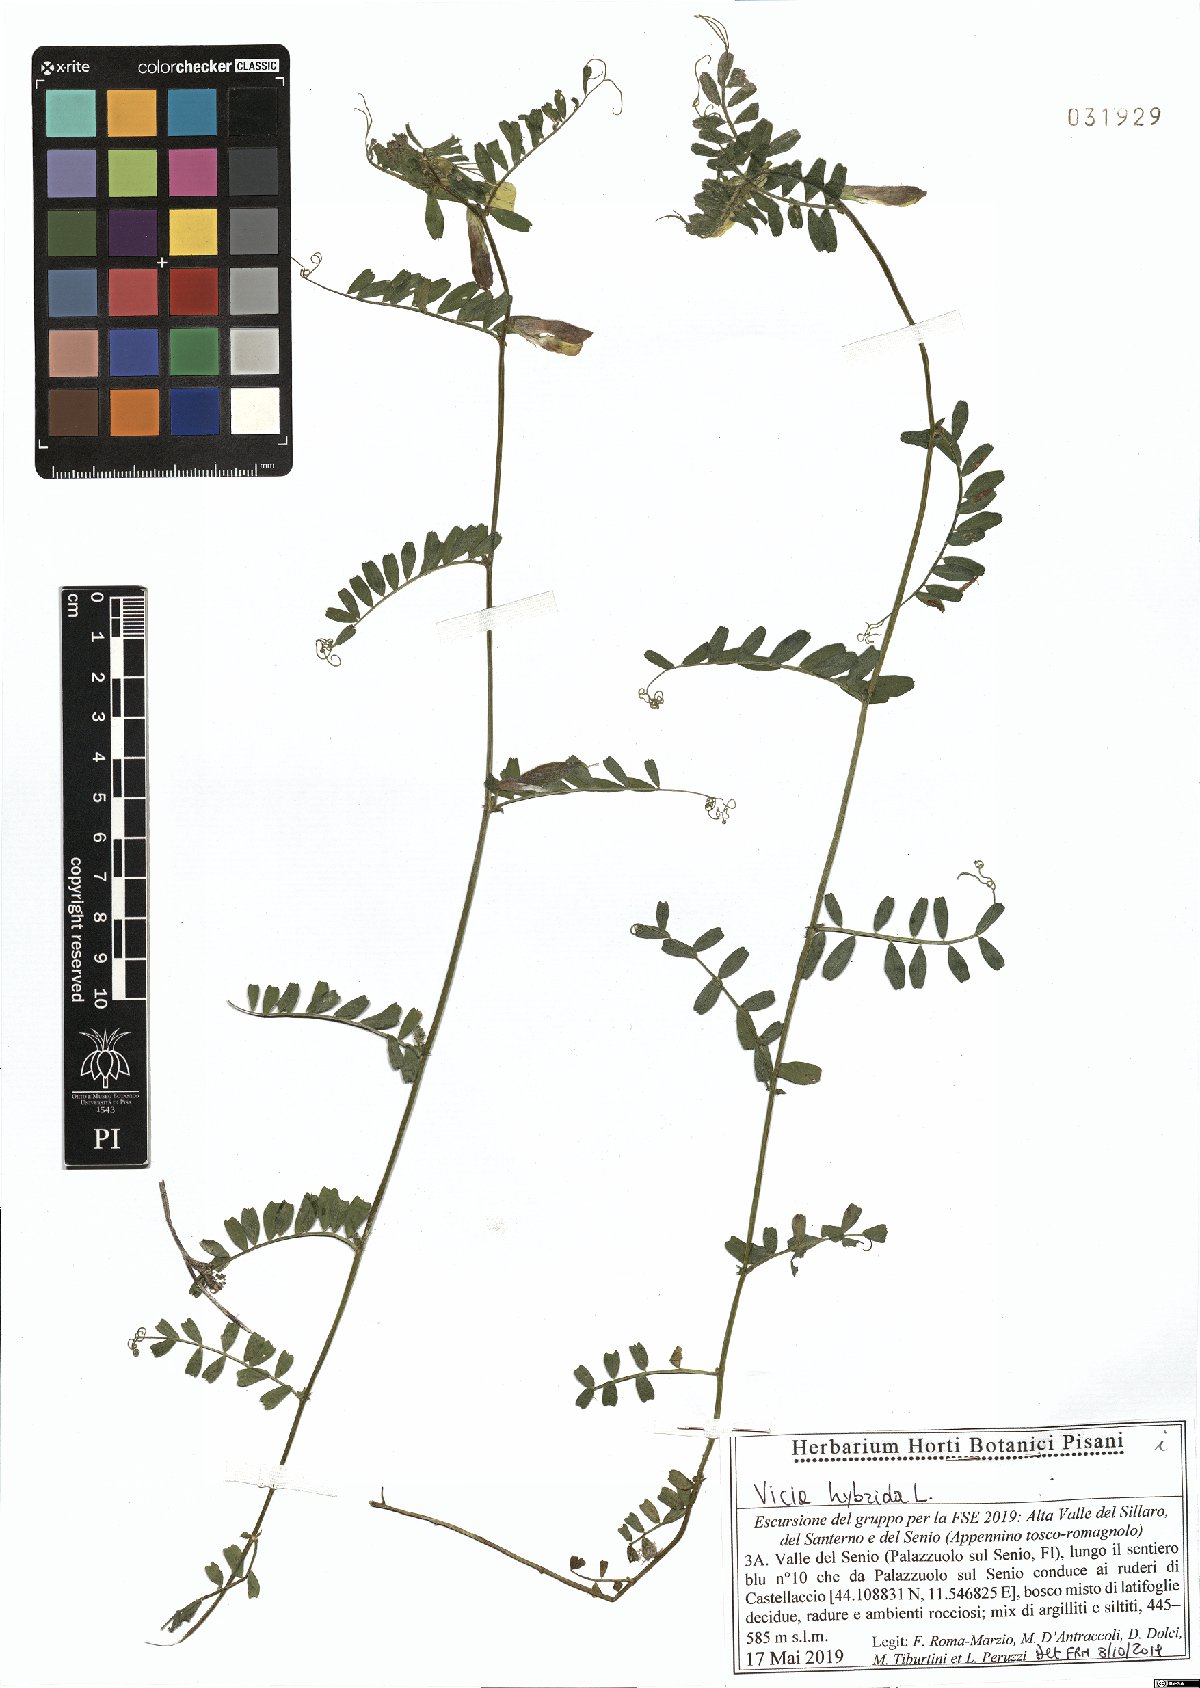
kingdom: Plantae
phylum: Tracheophyta
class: Magnoliopsida
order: Fabales
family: Fabaceae
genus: Vicia
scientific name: Vicia hybrida
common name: Hairy yellow vetch
